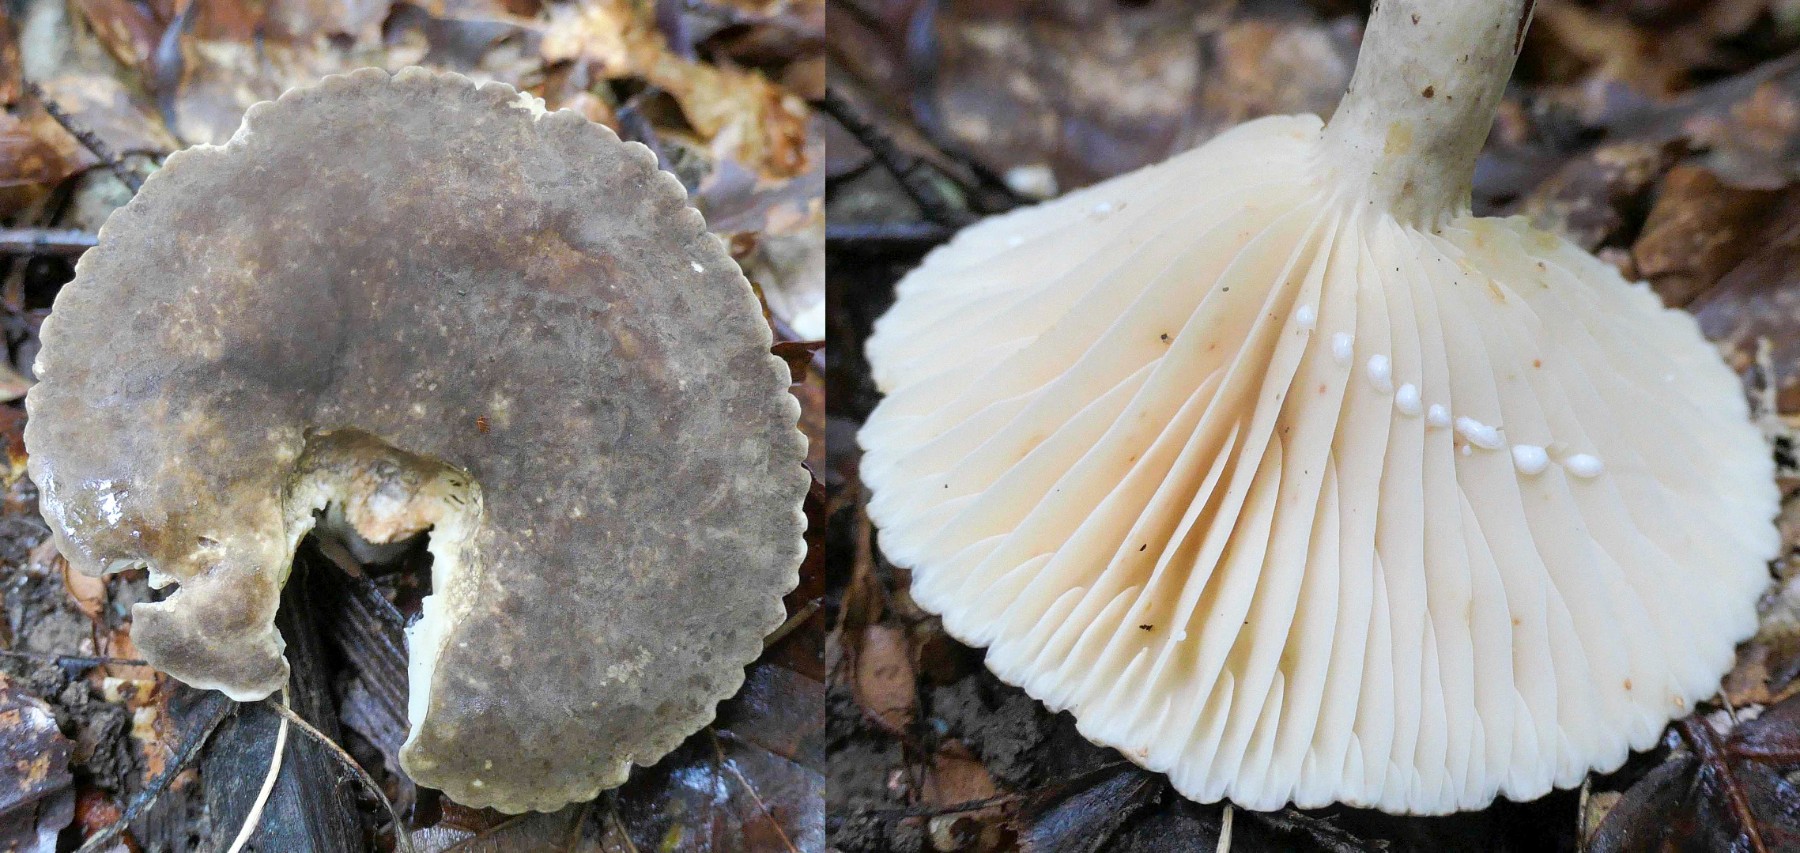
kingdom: Fungi
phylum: Basidiomycota
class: Agaricomycetes
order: Russulales
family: Russulaceae
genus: Lactarius
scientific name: Lactarius romagnesii
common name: fjernbladet mælkehat
